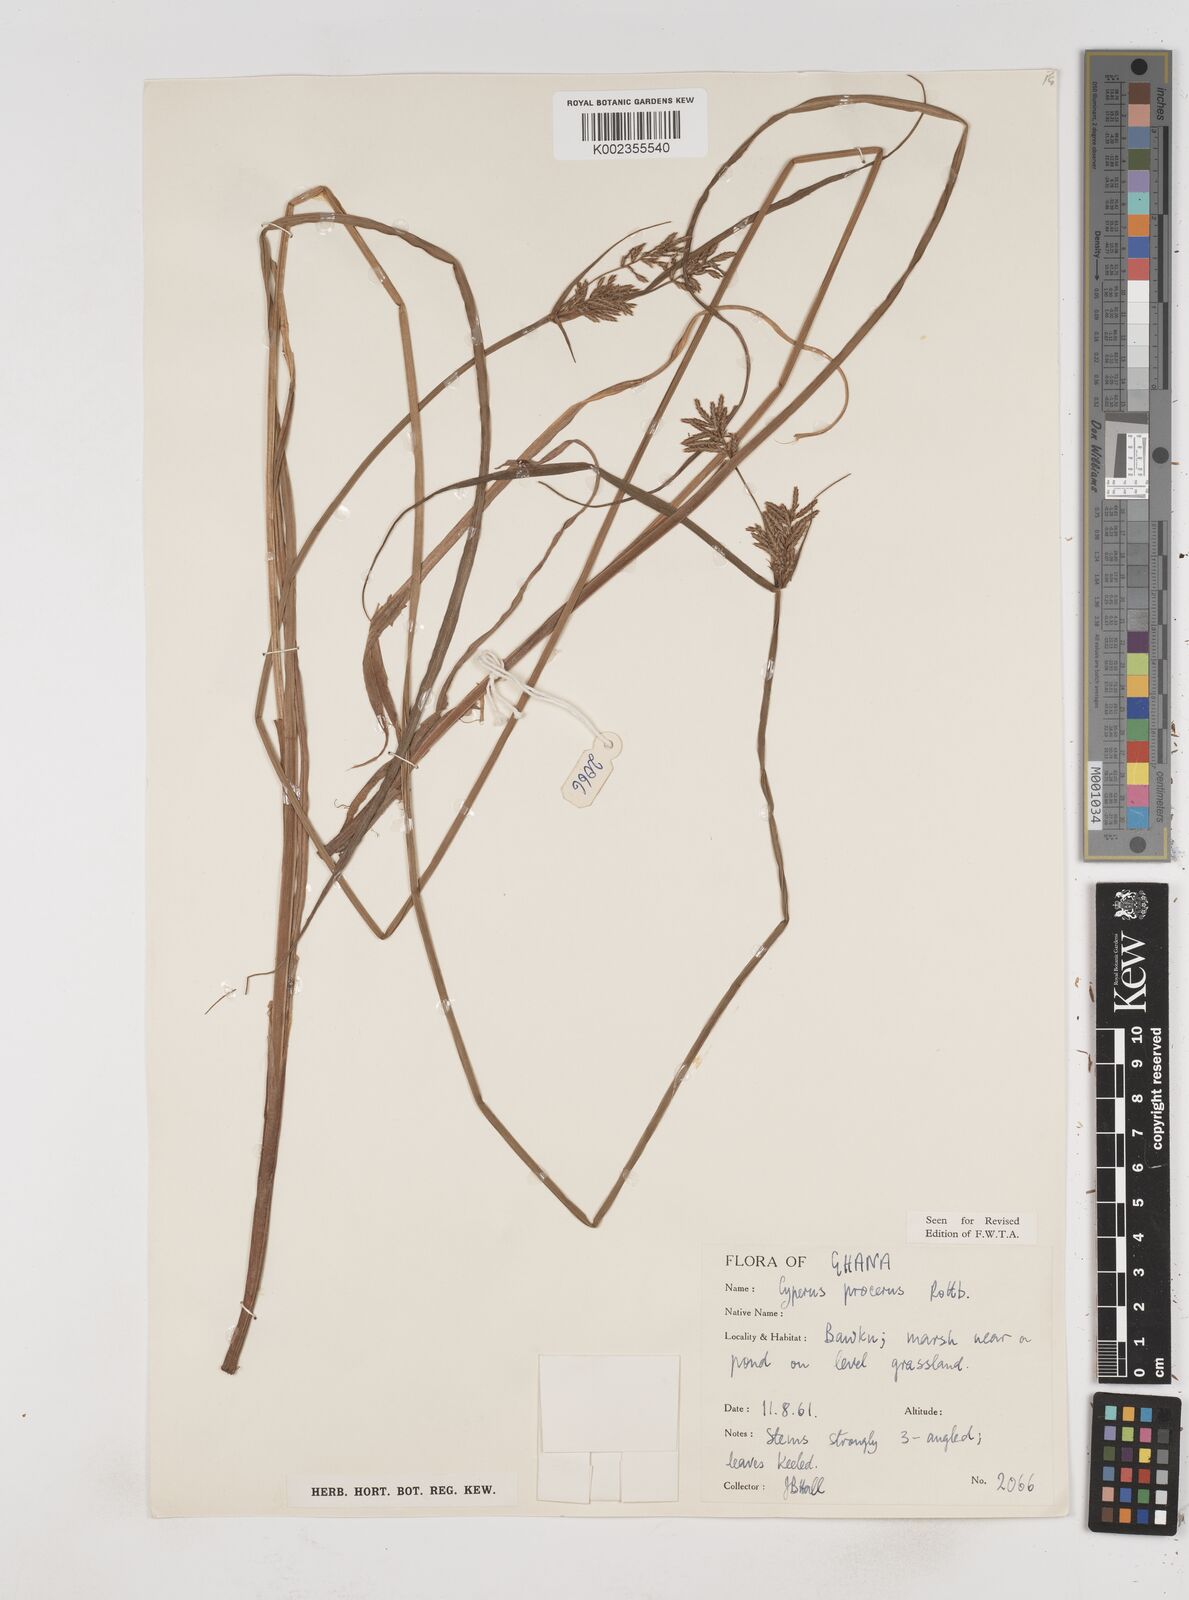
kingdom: Plantae
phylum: Tracheophyta
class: Liliopsida
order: Poales
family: Cyperaceae
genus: Cyperus
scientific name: Cyperus procerus
